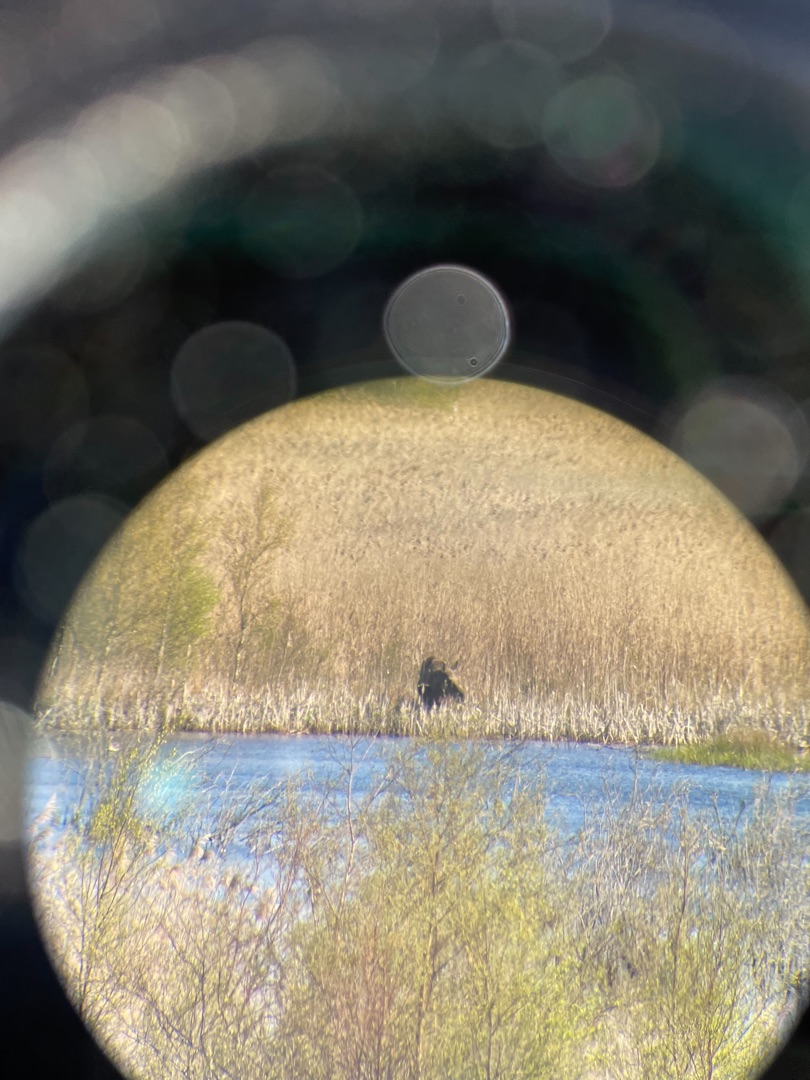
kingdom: Animalia
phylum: Chordata
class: Mammalia
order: Artiodactyla
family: Cervidae
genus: Alces
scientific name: Alces alces
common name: Elg
